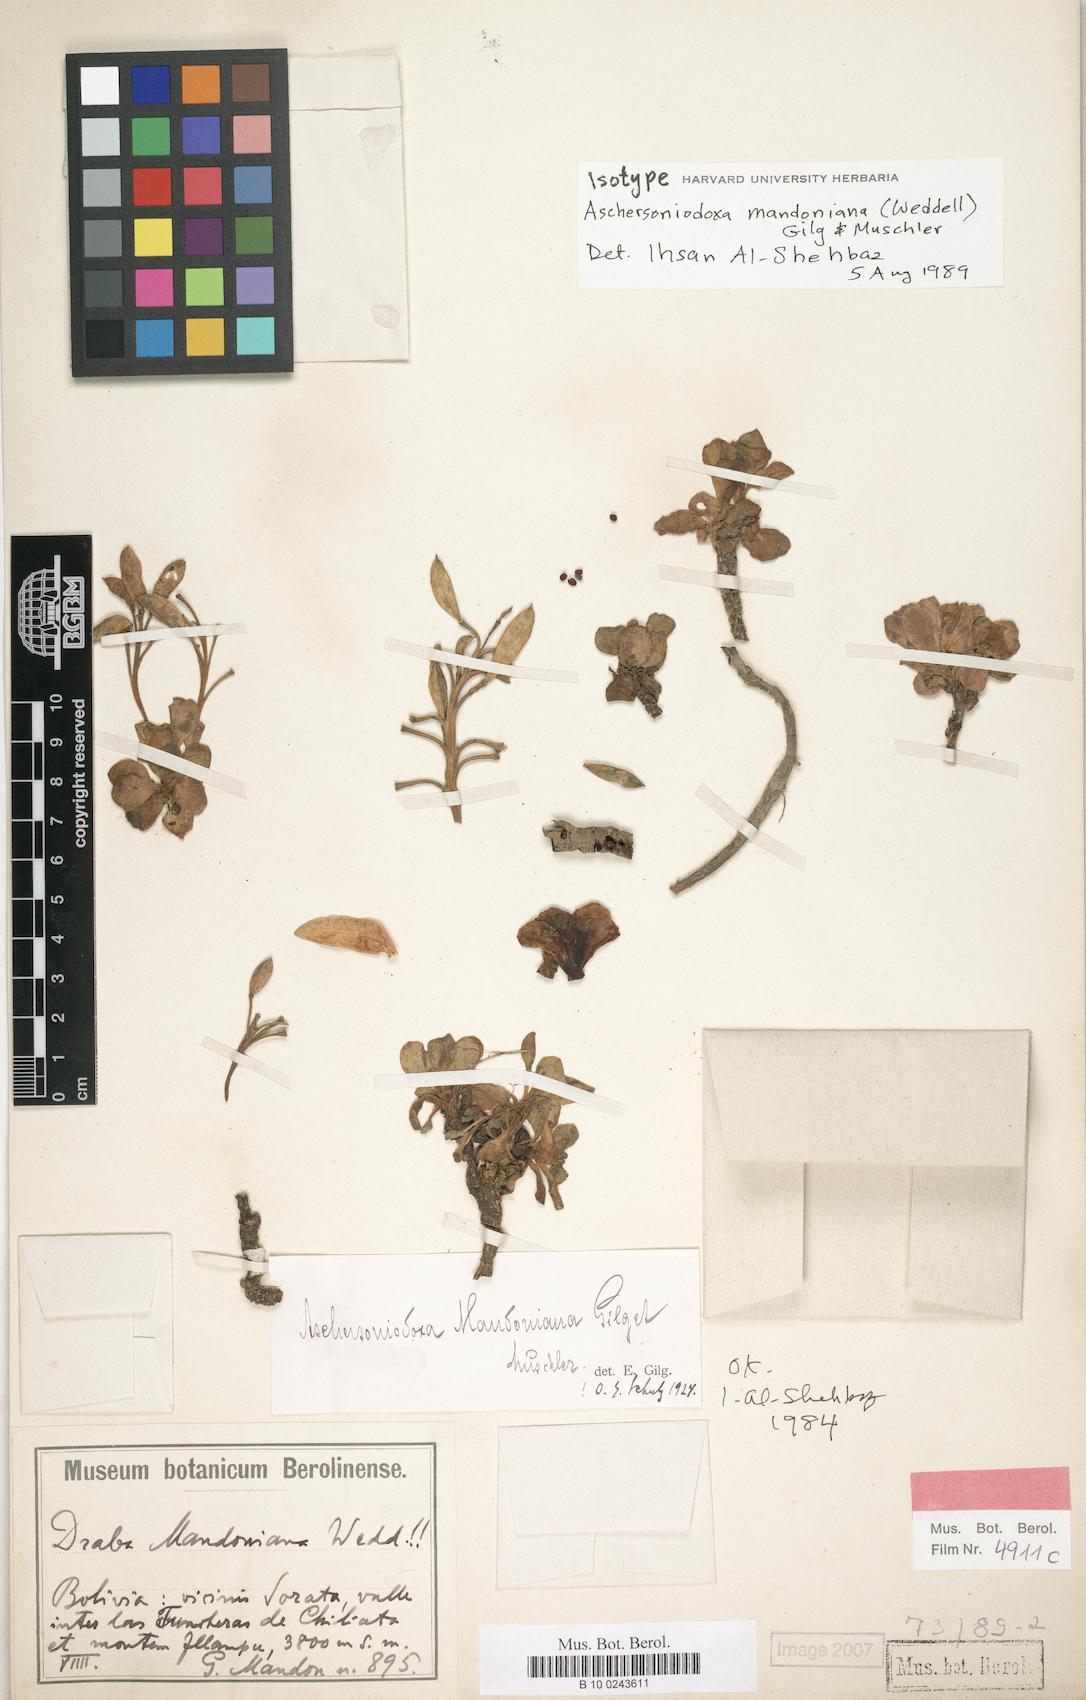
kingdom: Plantae
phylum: Tracheophyta
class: Magnoliopsida
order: Brassicales
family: Brassicaceae
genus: Aschersoniodoxa
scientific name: Aschersoniodoxa mandoniana
